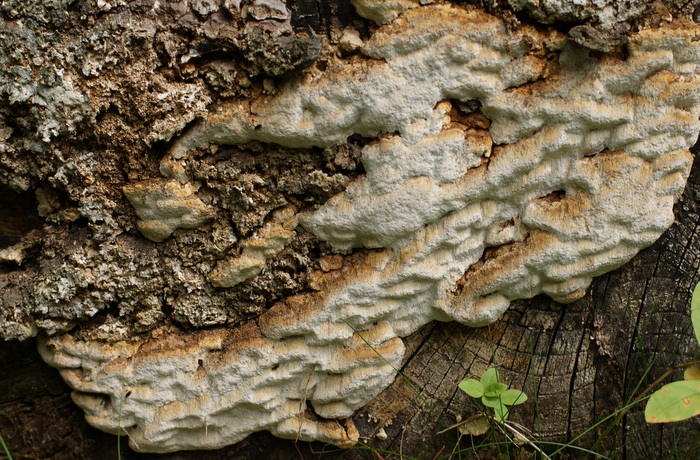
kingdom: Fungi
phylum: Basidiomycota
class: Agaricomycetes
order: Polyporales
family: Fomitopsidaceae
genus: Neoantrodia
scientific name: Neoantrodia serialis
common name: række-sejporesvamp
